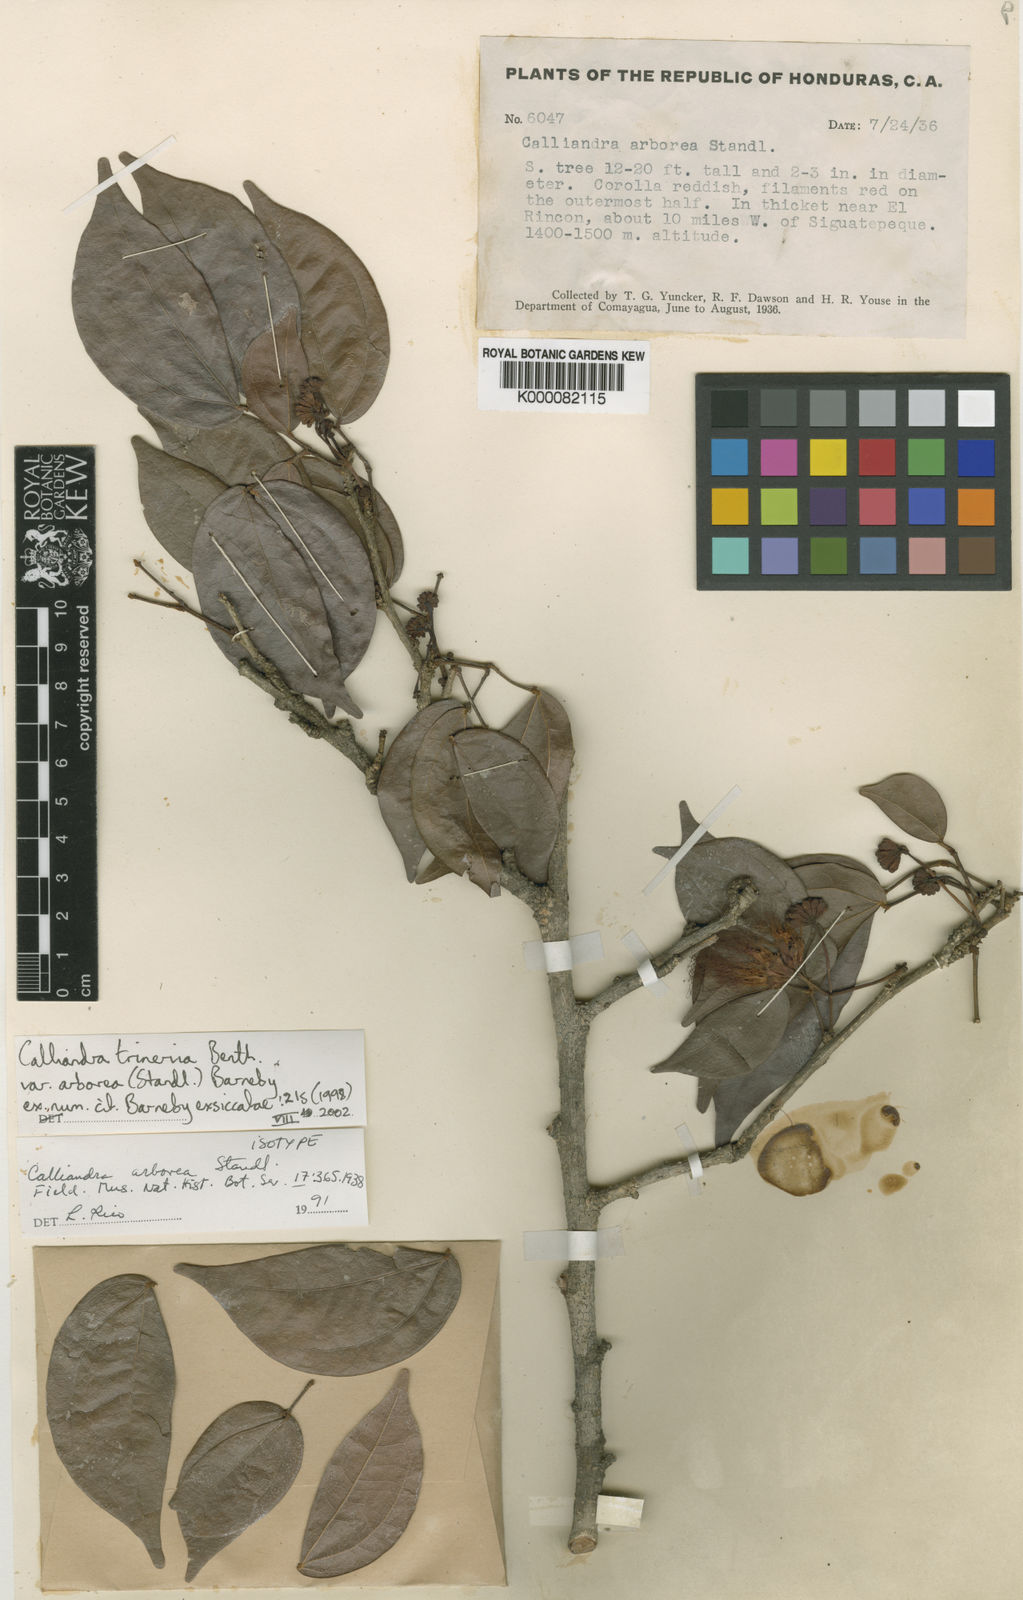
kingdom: Plantae
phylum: Tracheophyta
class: Magnoliopsida
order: Fabales
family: Fabaceae
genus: Calliandra
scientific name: Calliandra trinervia
